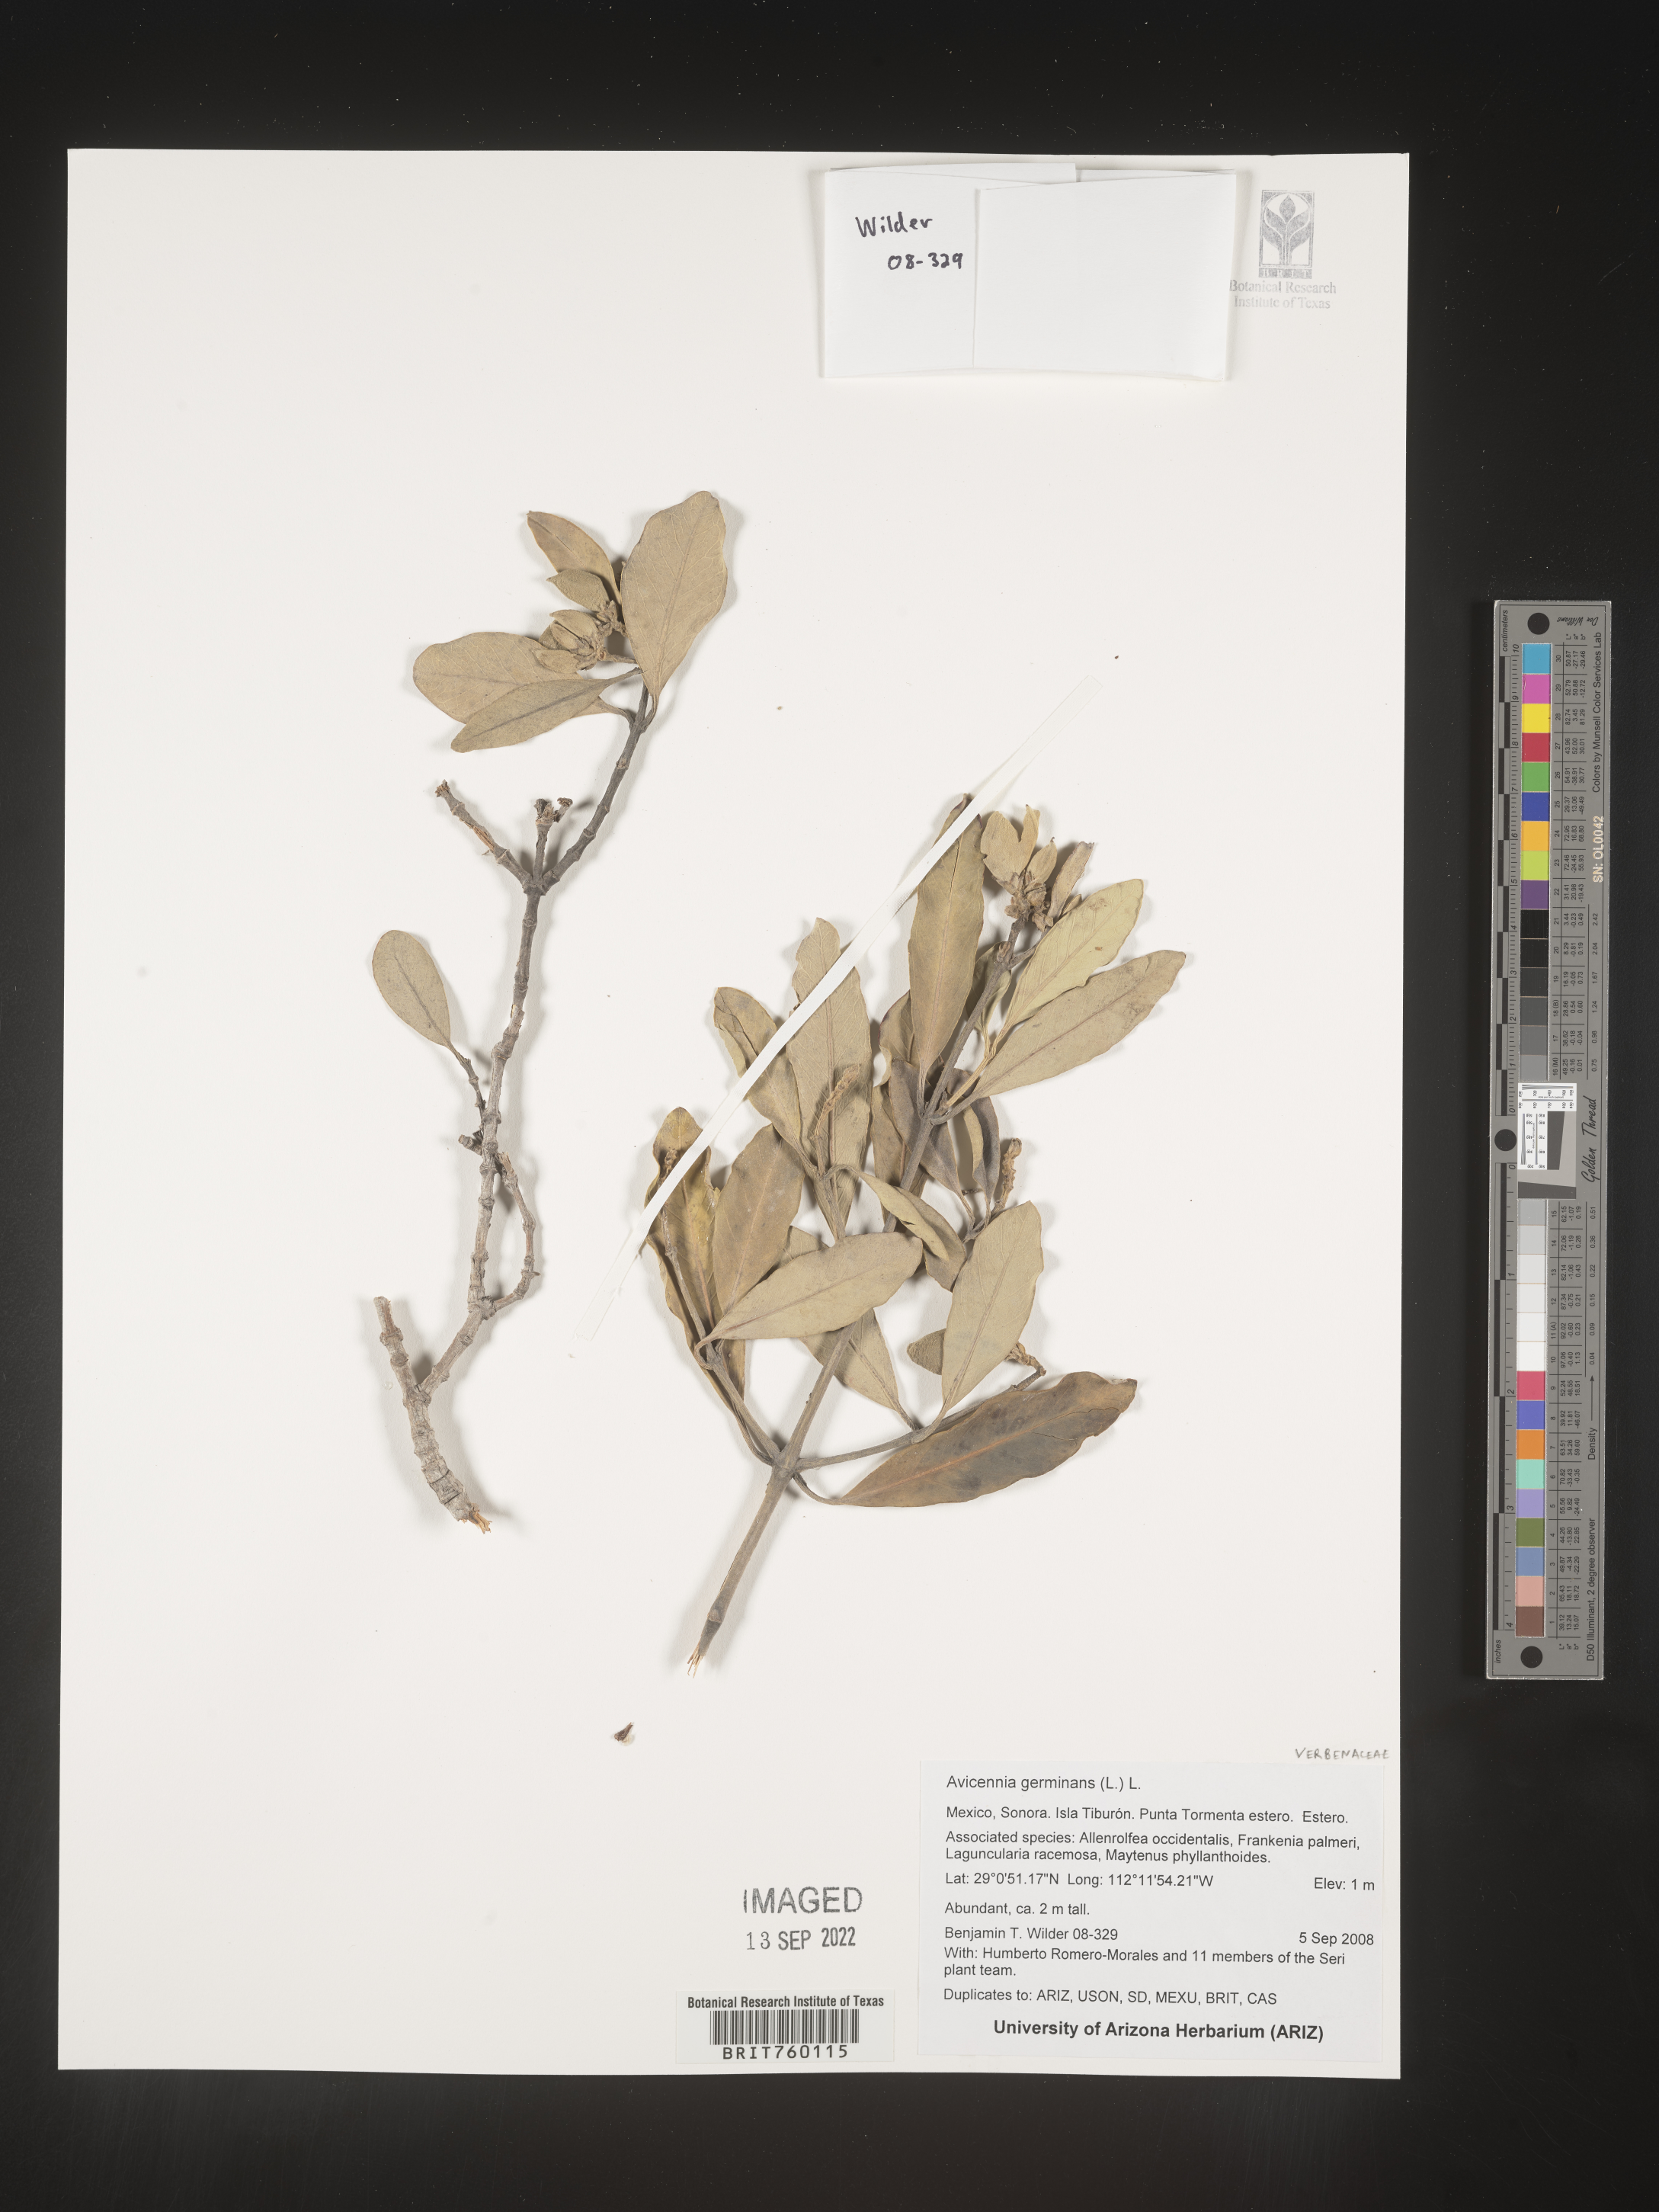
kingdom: Plantae
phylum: Tracheophyta
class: Magnoliopsida
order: Lamiales
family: Acanthaceae
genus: Avicennia
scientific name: Avicennia
